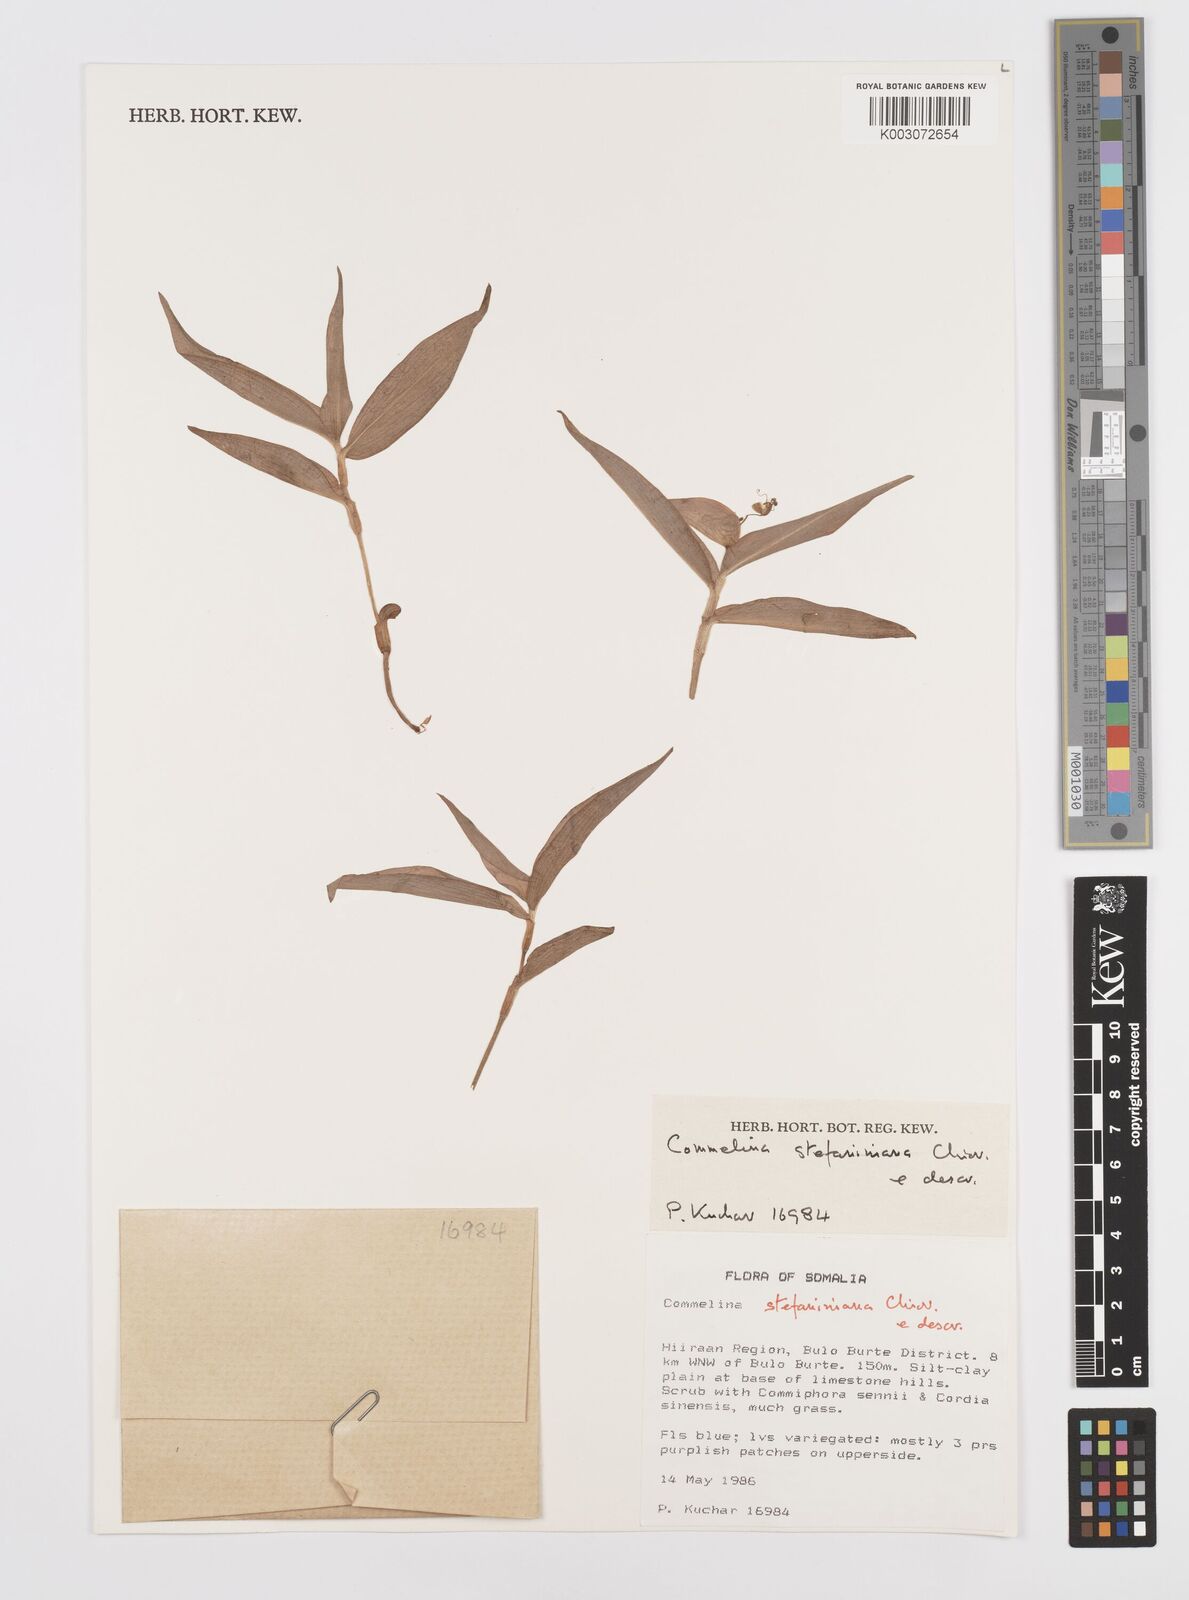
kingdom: Plantae
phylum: Tracheophyta
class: Liliopsida
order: Commelinales
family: Commelinaceae
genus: Commelina
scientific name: Commelina stefaniniana
